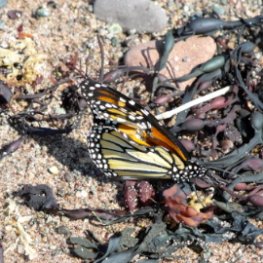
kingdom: Animalia
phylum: Arthropoda
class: Insecta
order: Lepidoptera
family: Nymphalidae
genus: Danaus
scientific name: Danaus plexippus
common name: Monarch
